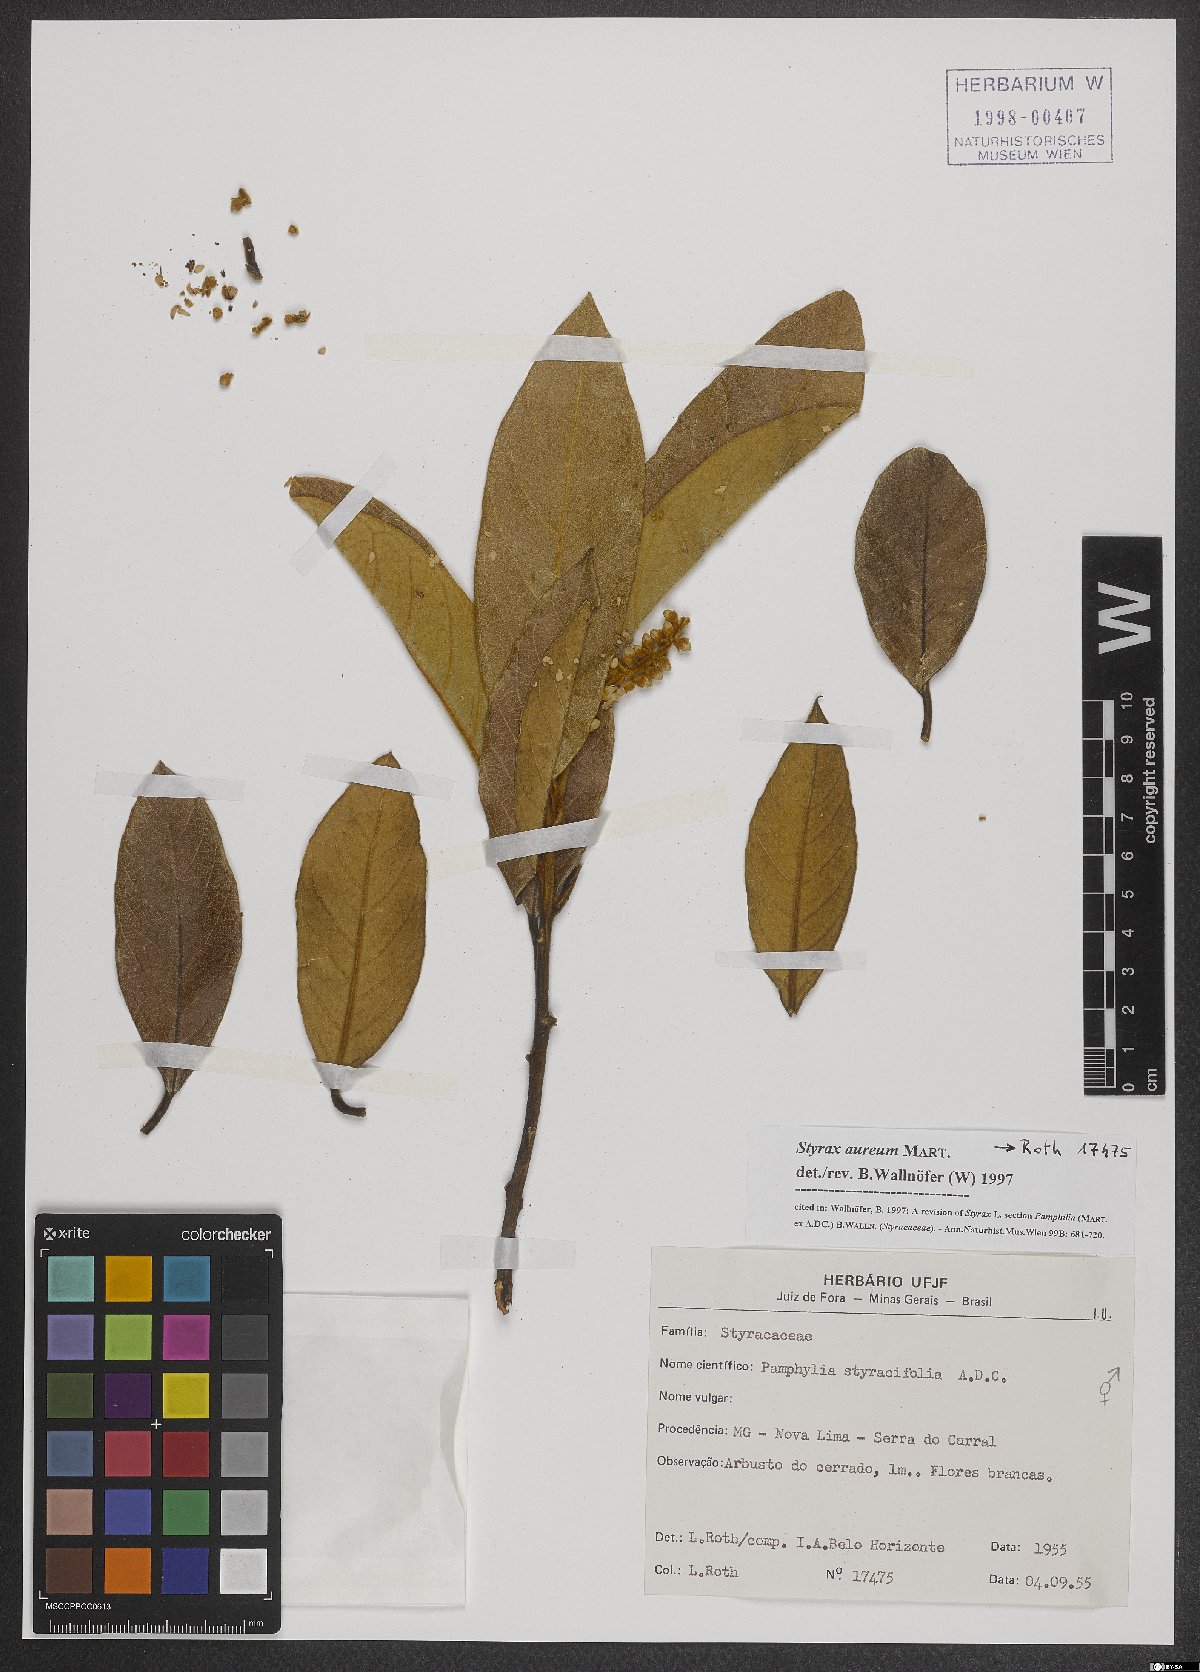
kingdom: Plantae
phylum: Tracheophyta
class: Magnoliopsida
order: Ericales
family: Styracaceae
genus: Styrax
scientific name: Styrax aureus
